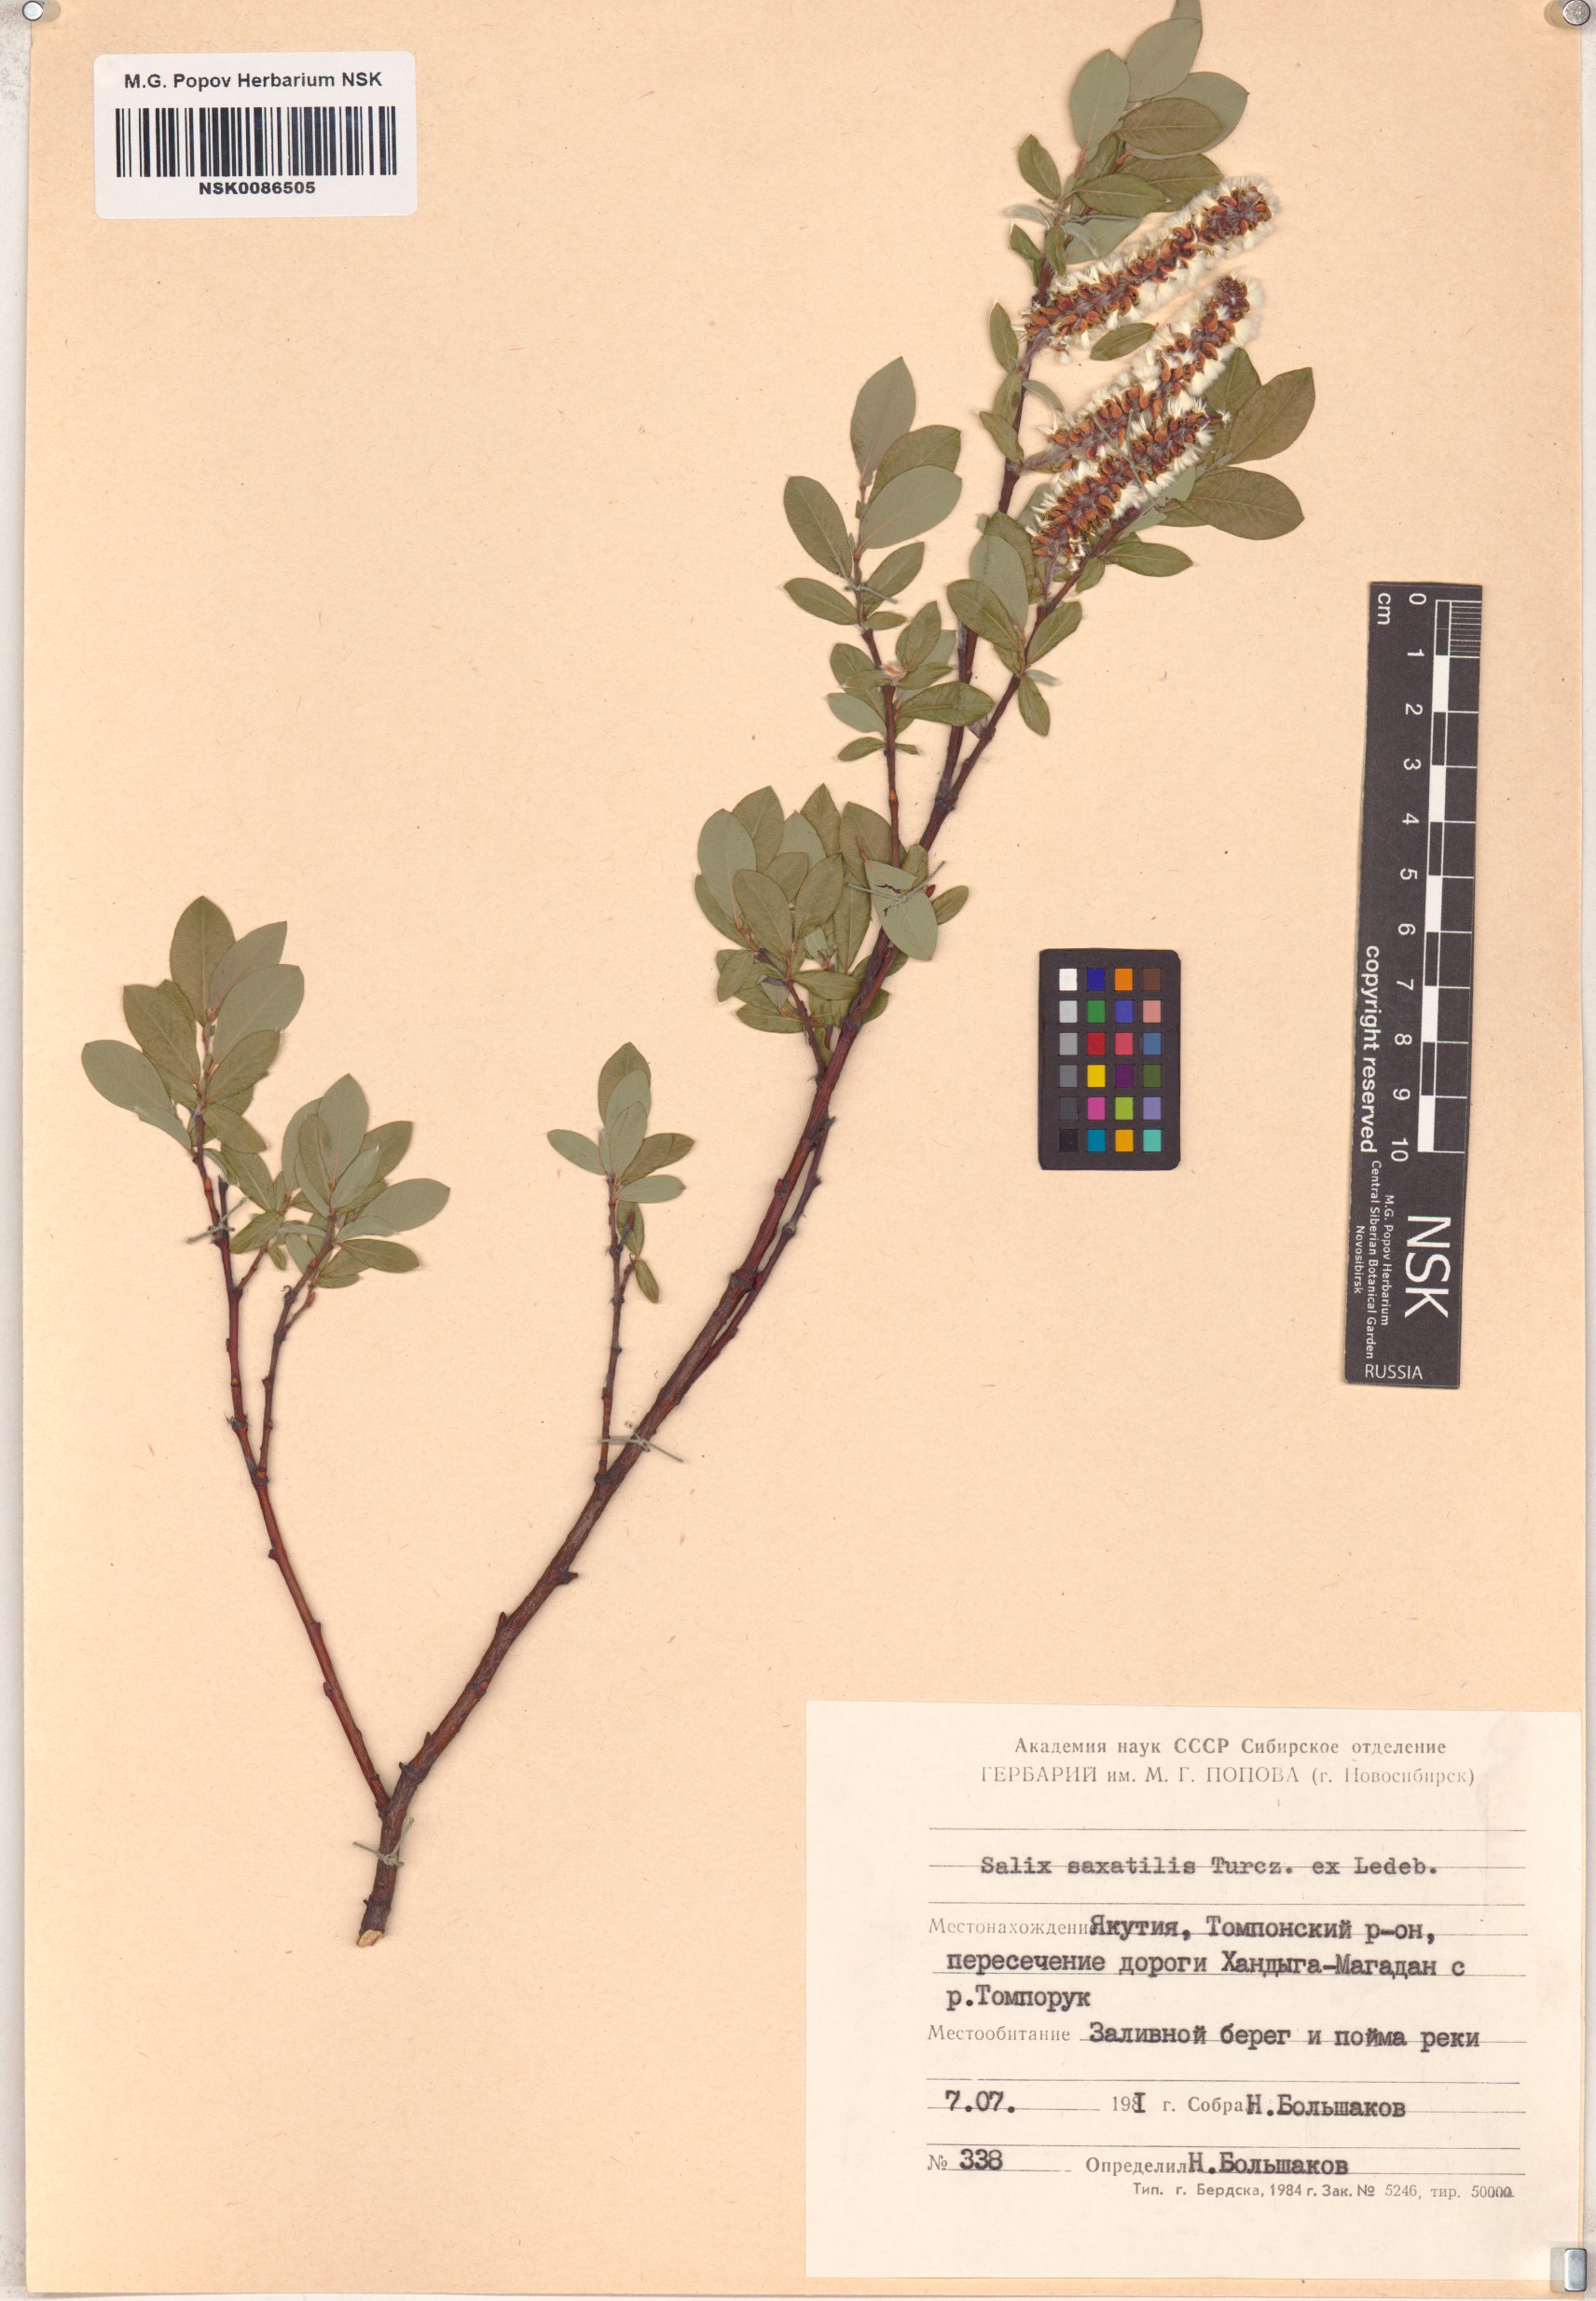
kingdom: Plantae
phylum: Tracheophyta
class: Magnoliopsida
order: Malpighiales
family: Salicaceae
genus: Salix
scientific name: Salix saxatilis
